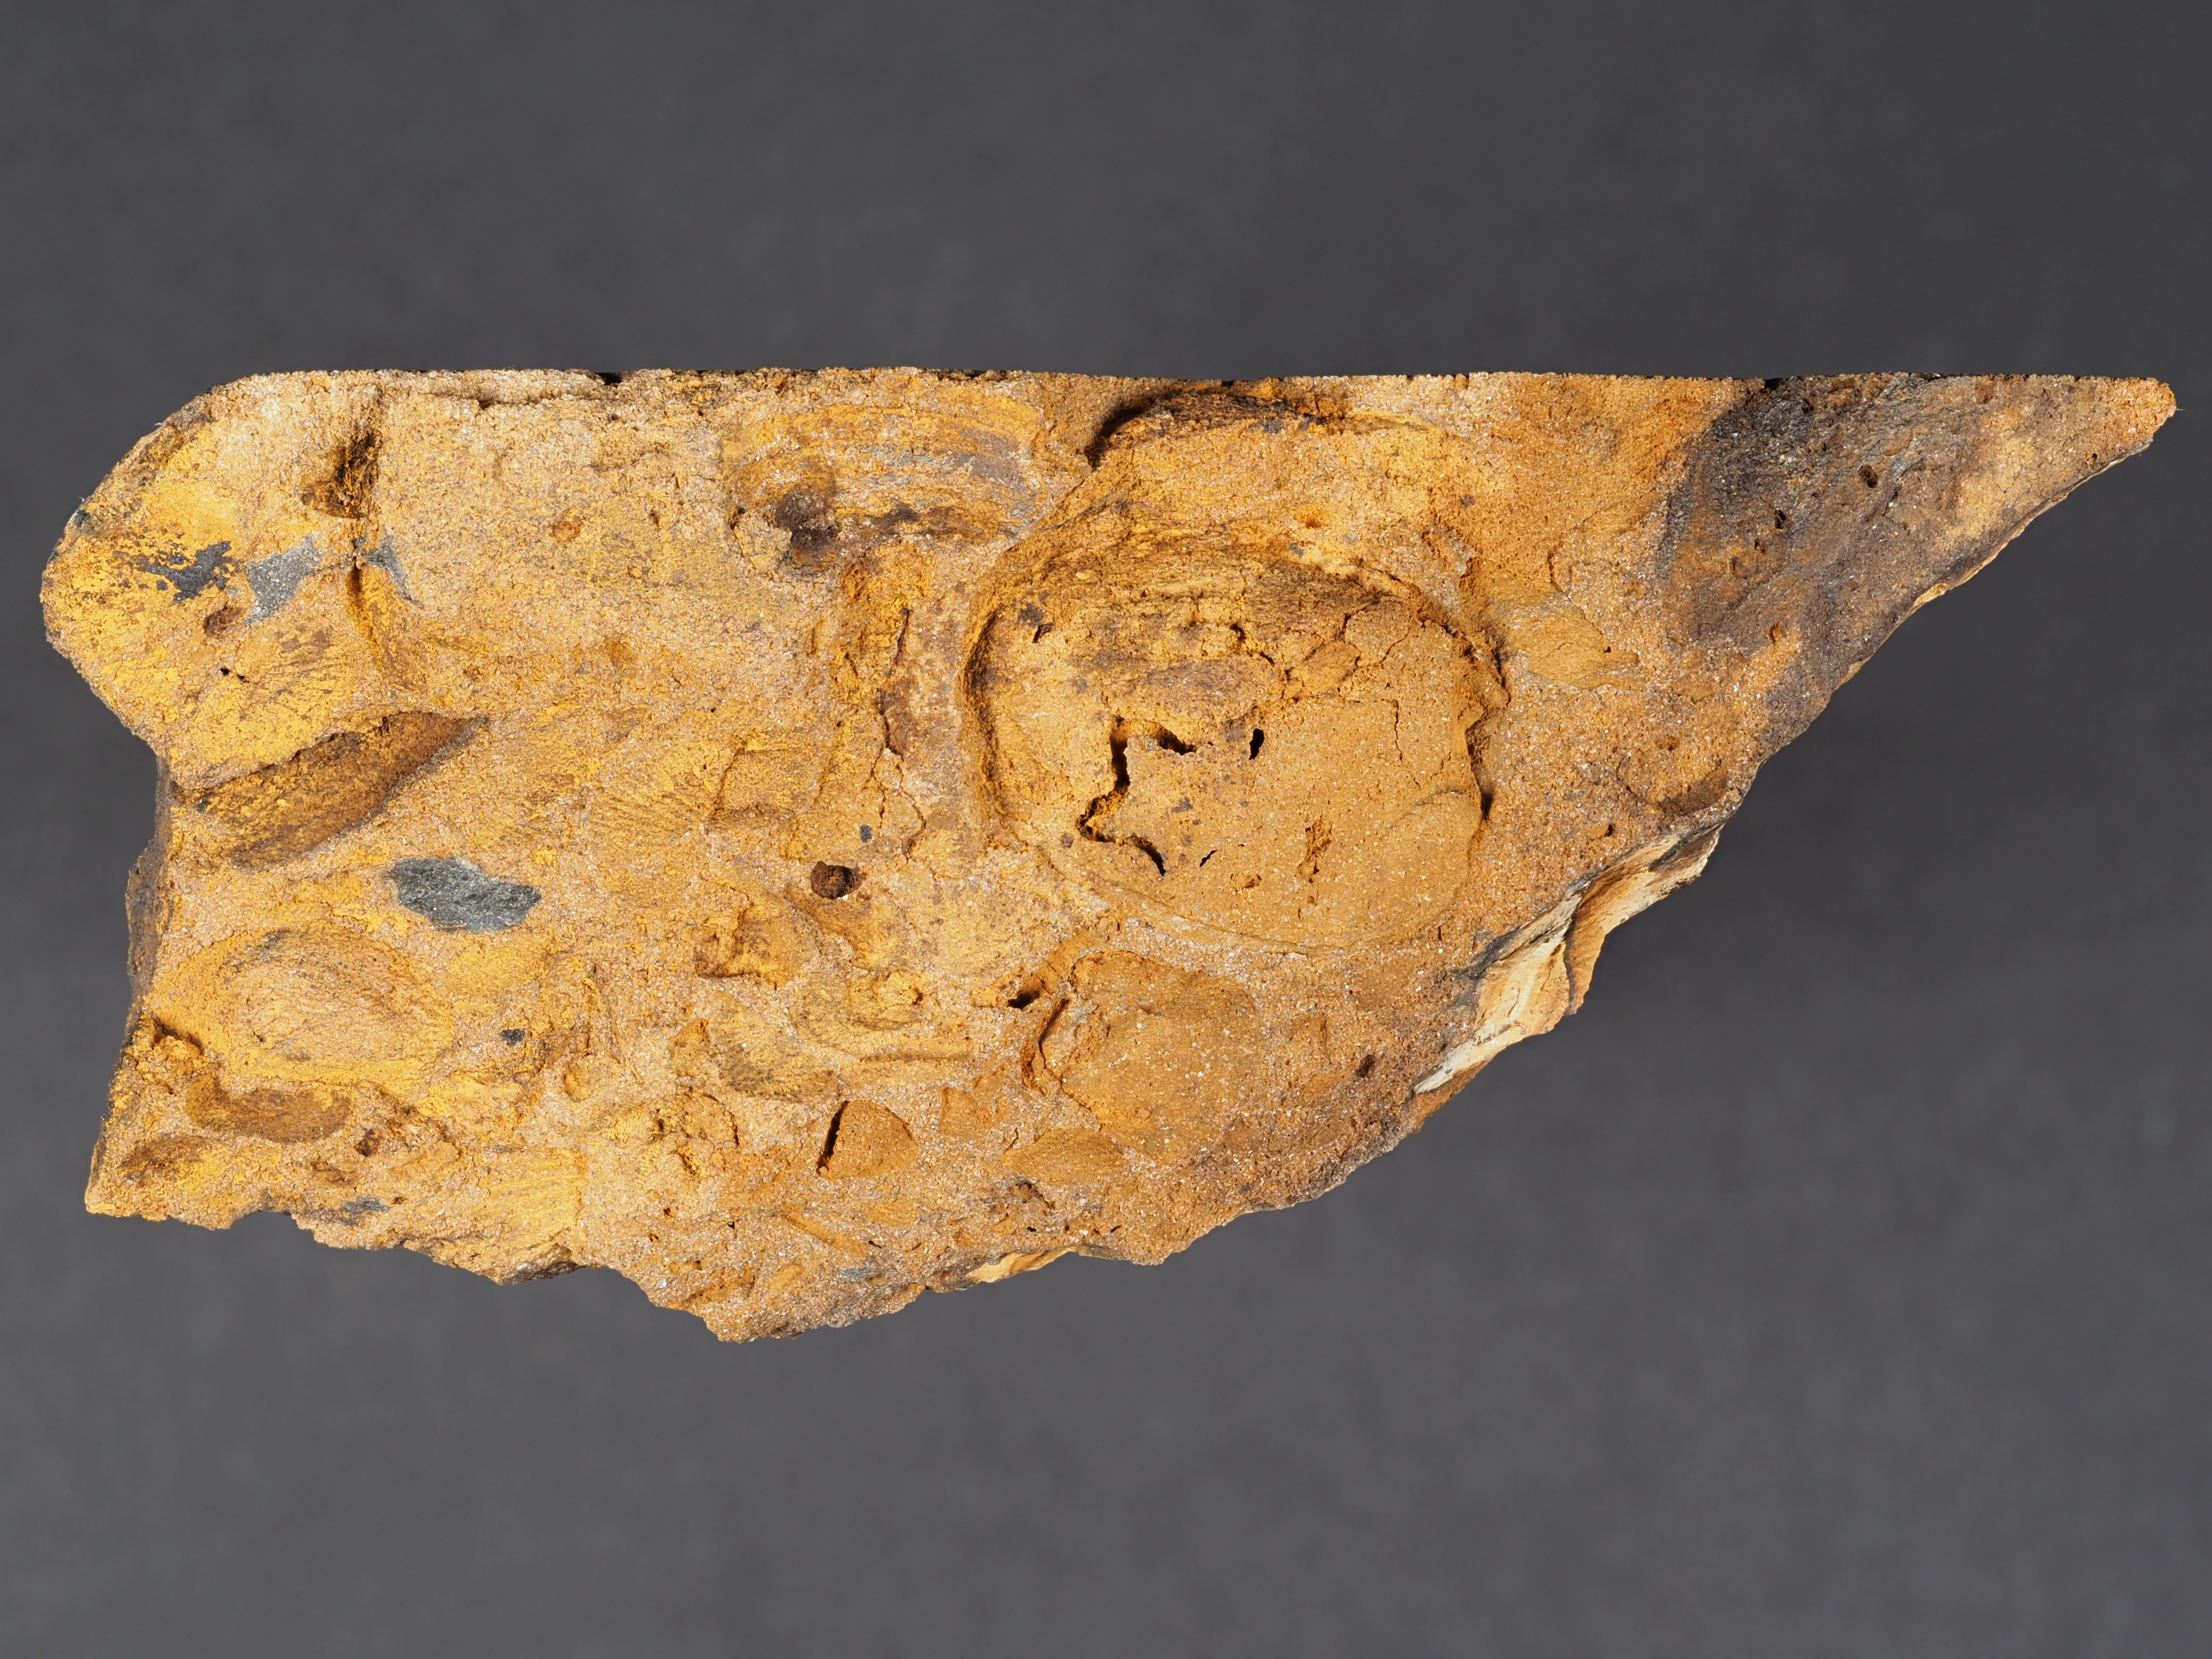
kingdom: Animalia
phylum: Mollusca
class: Bivalvia
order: Carditida
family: Crassatellidae
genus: Cypricardella
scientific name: Cypricardella
